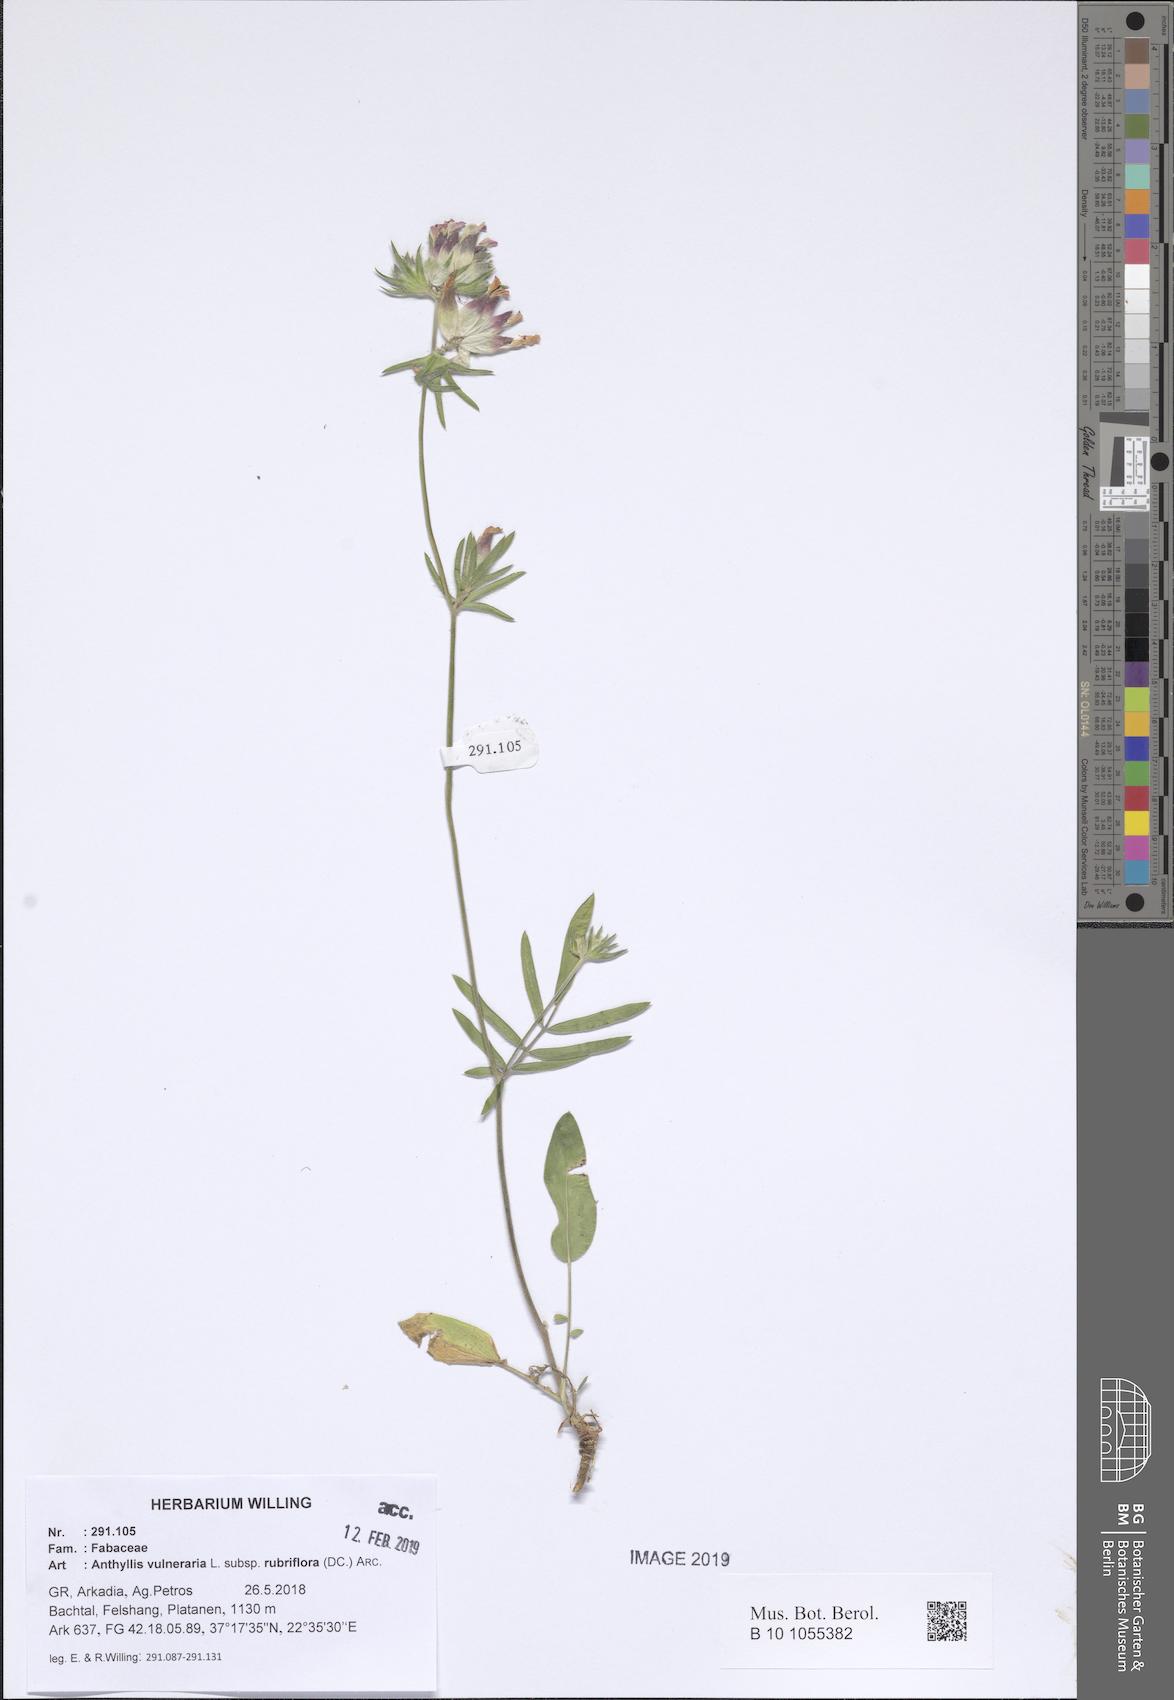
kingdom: Plantae
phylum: Tracheophyta
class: Magnoliopsida
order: Fabales
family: Fabaceae
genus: Anthyllis
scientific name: Anthyllis vulneraria
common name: Kidney vetch
